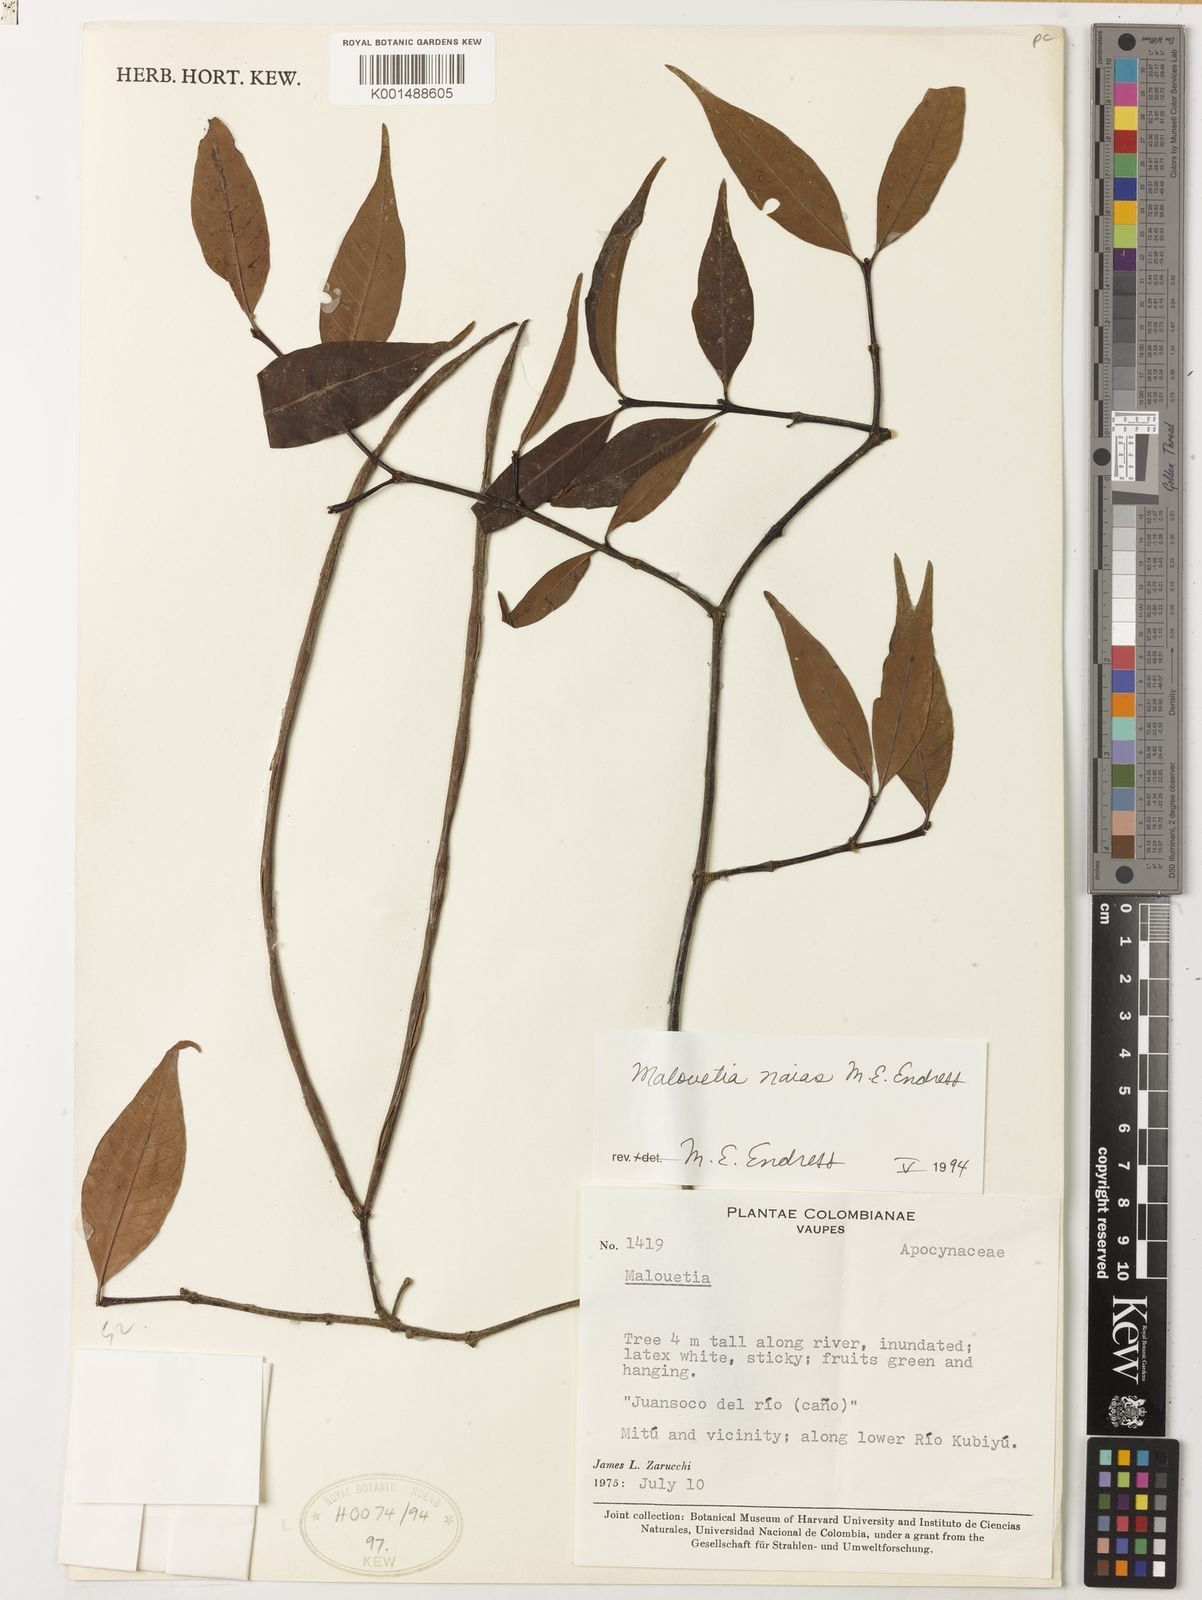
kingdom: Plantae
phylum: Tracheophyta
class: Magnoliopsida
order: Gentianales
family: Apocynaceae
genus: Malouetia
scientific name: Malouetia naias
